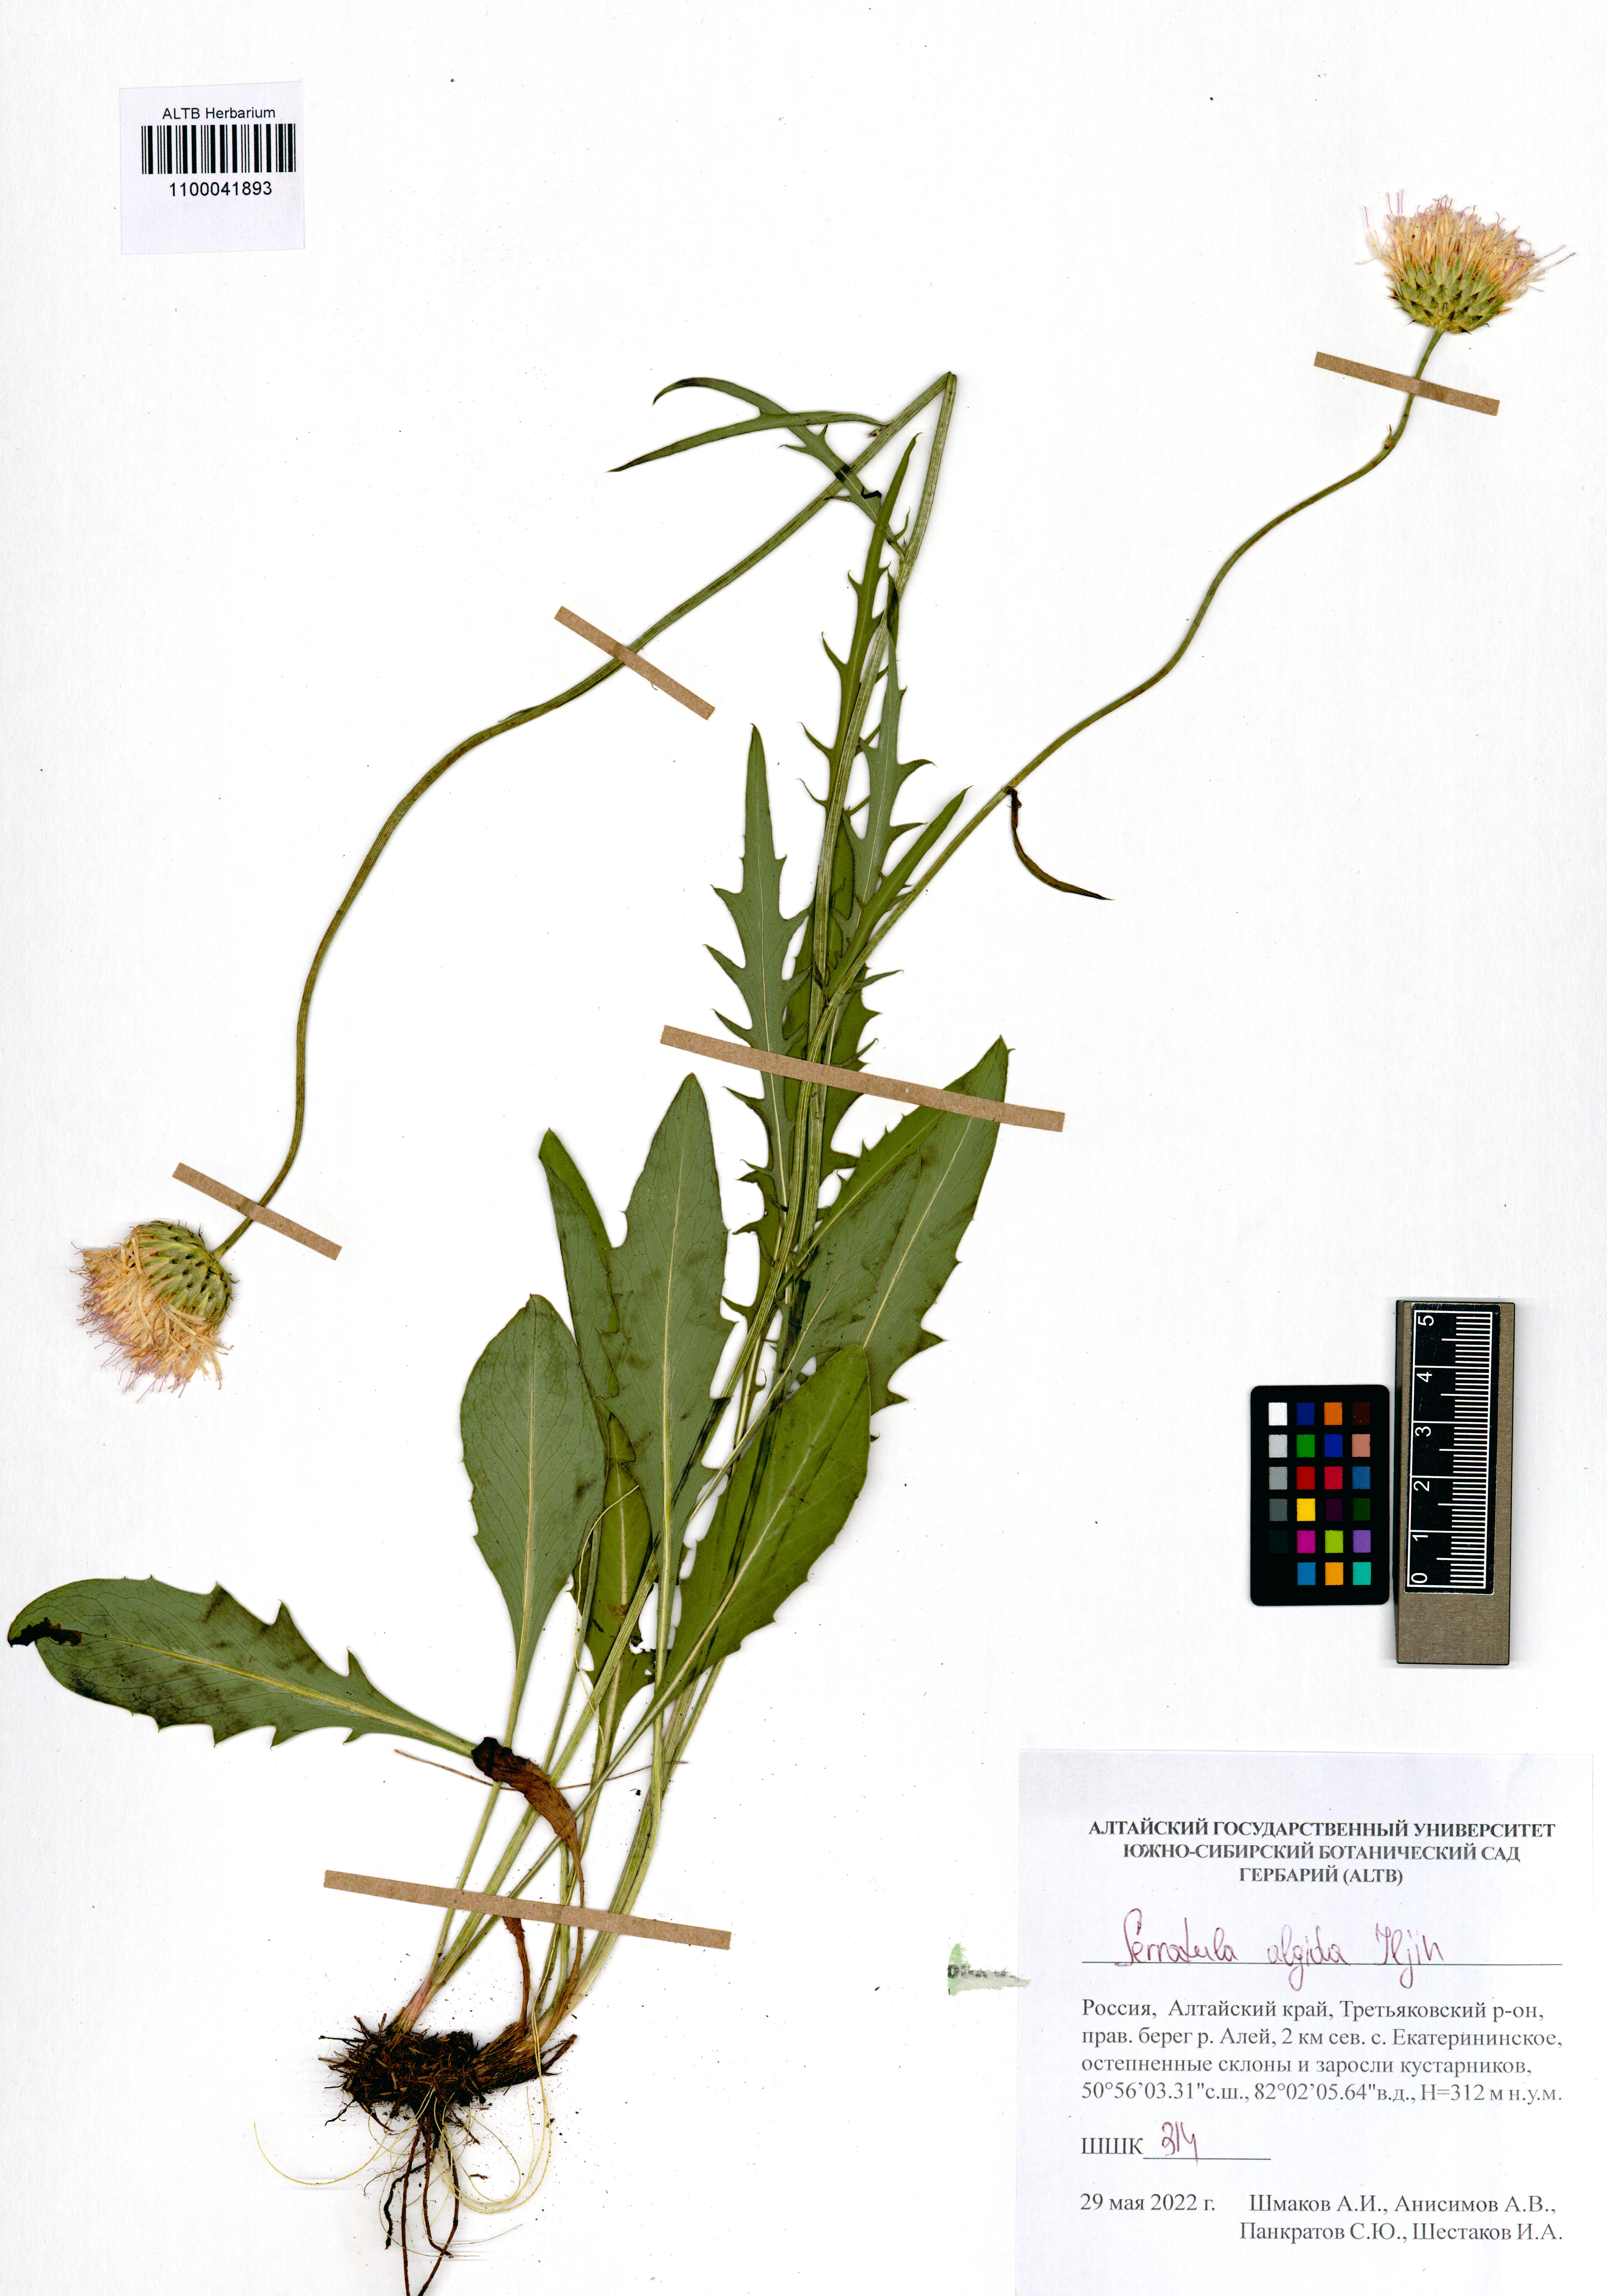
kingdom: Plantae
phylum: Tracheophyta
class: Magnoliopsida
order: Asterales
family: Asteraceae
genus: Klasea
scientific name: Klasea marginata
